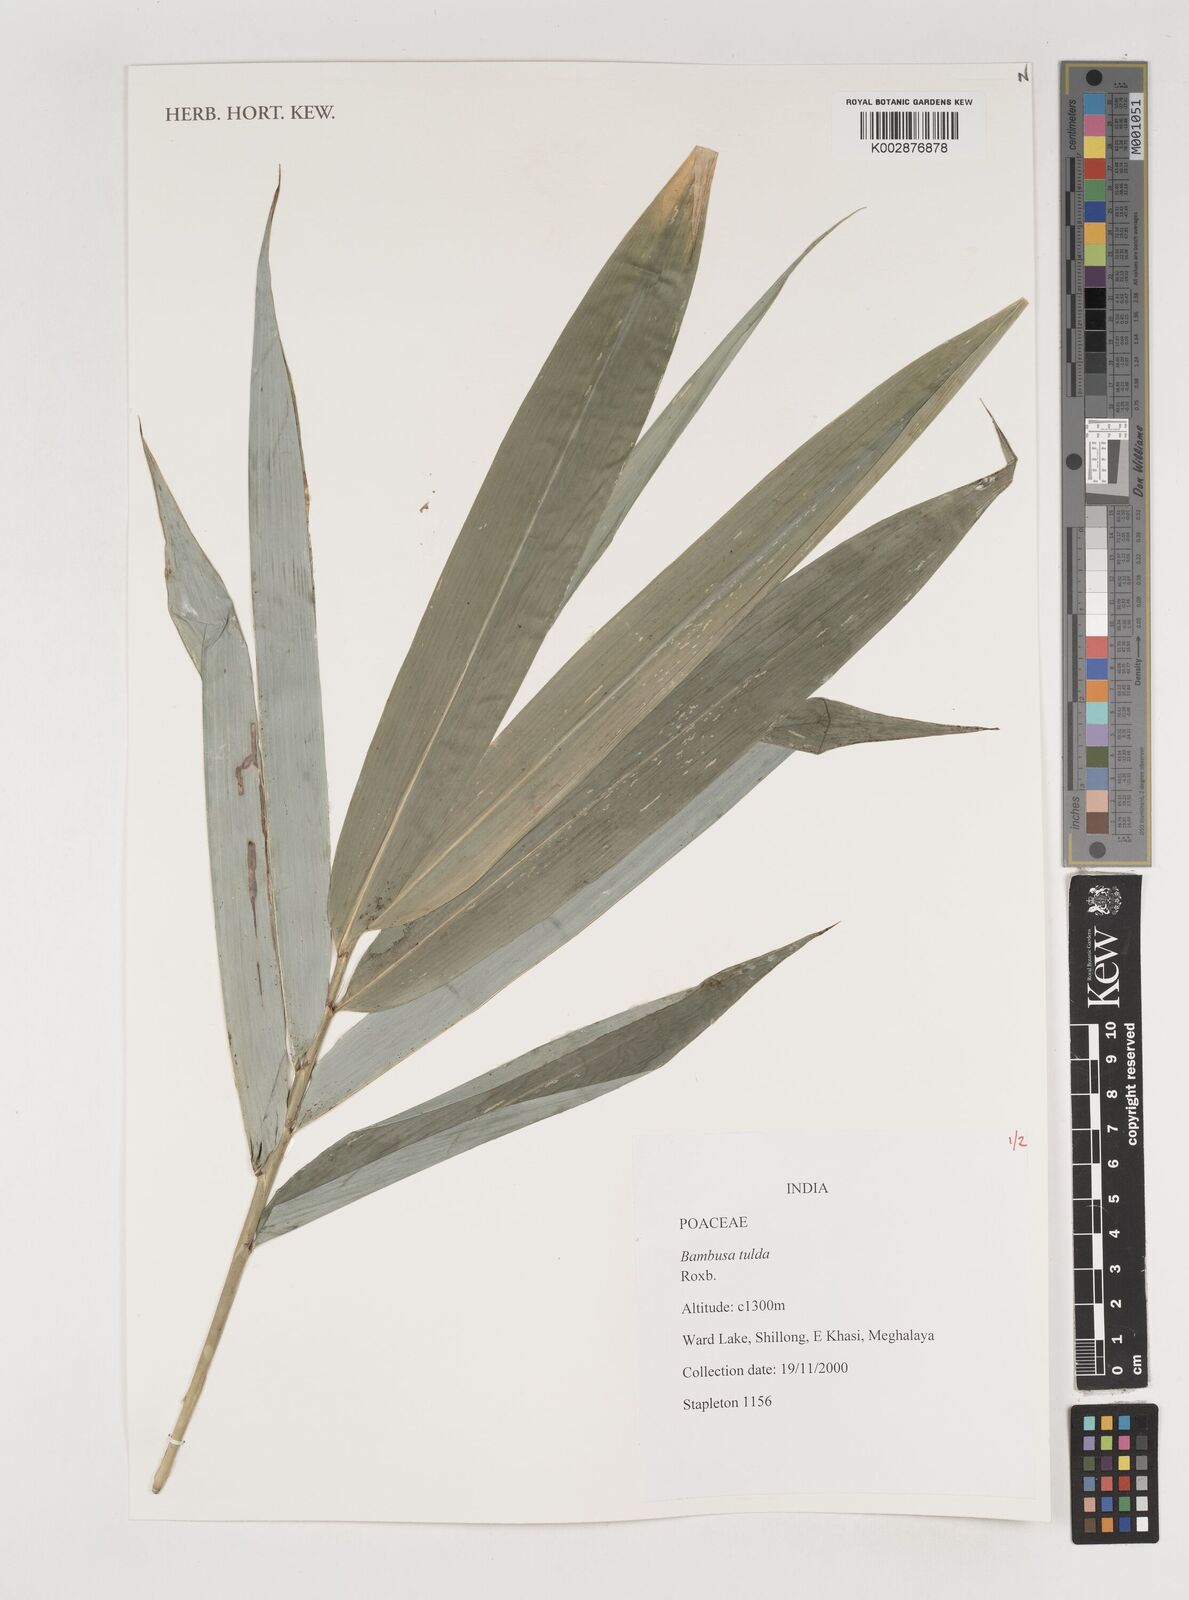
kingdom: Plantae
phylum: Tracheophyta
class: Liliopsida
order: Poales
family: Poaceae
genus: Bambusa
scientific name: Bambusa tuldoides
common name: Verdant bamboo
